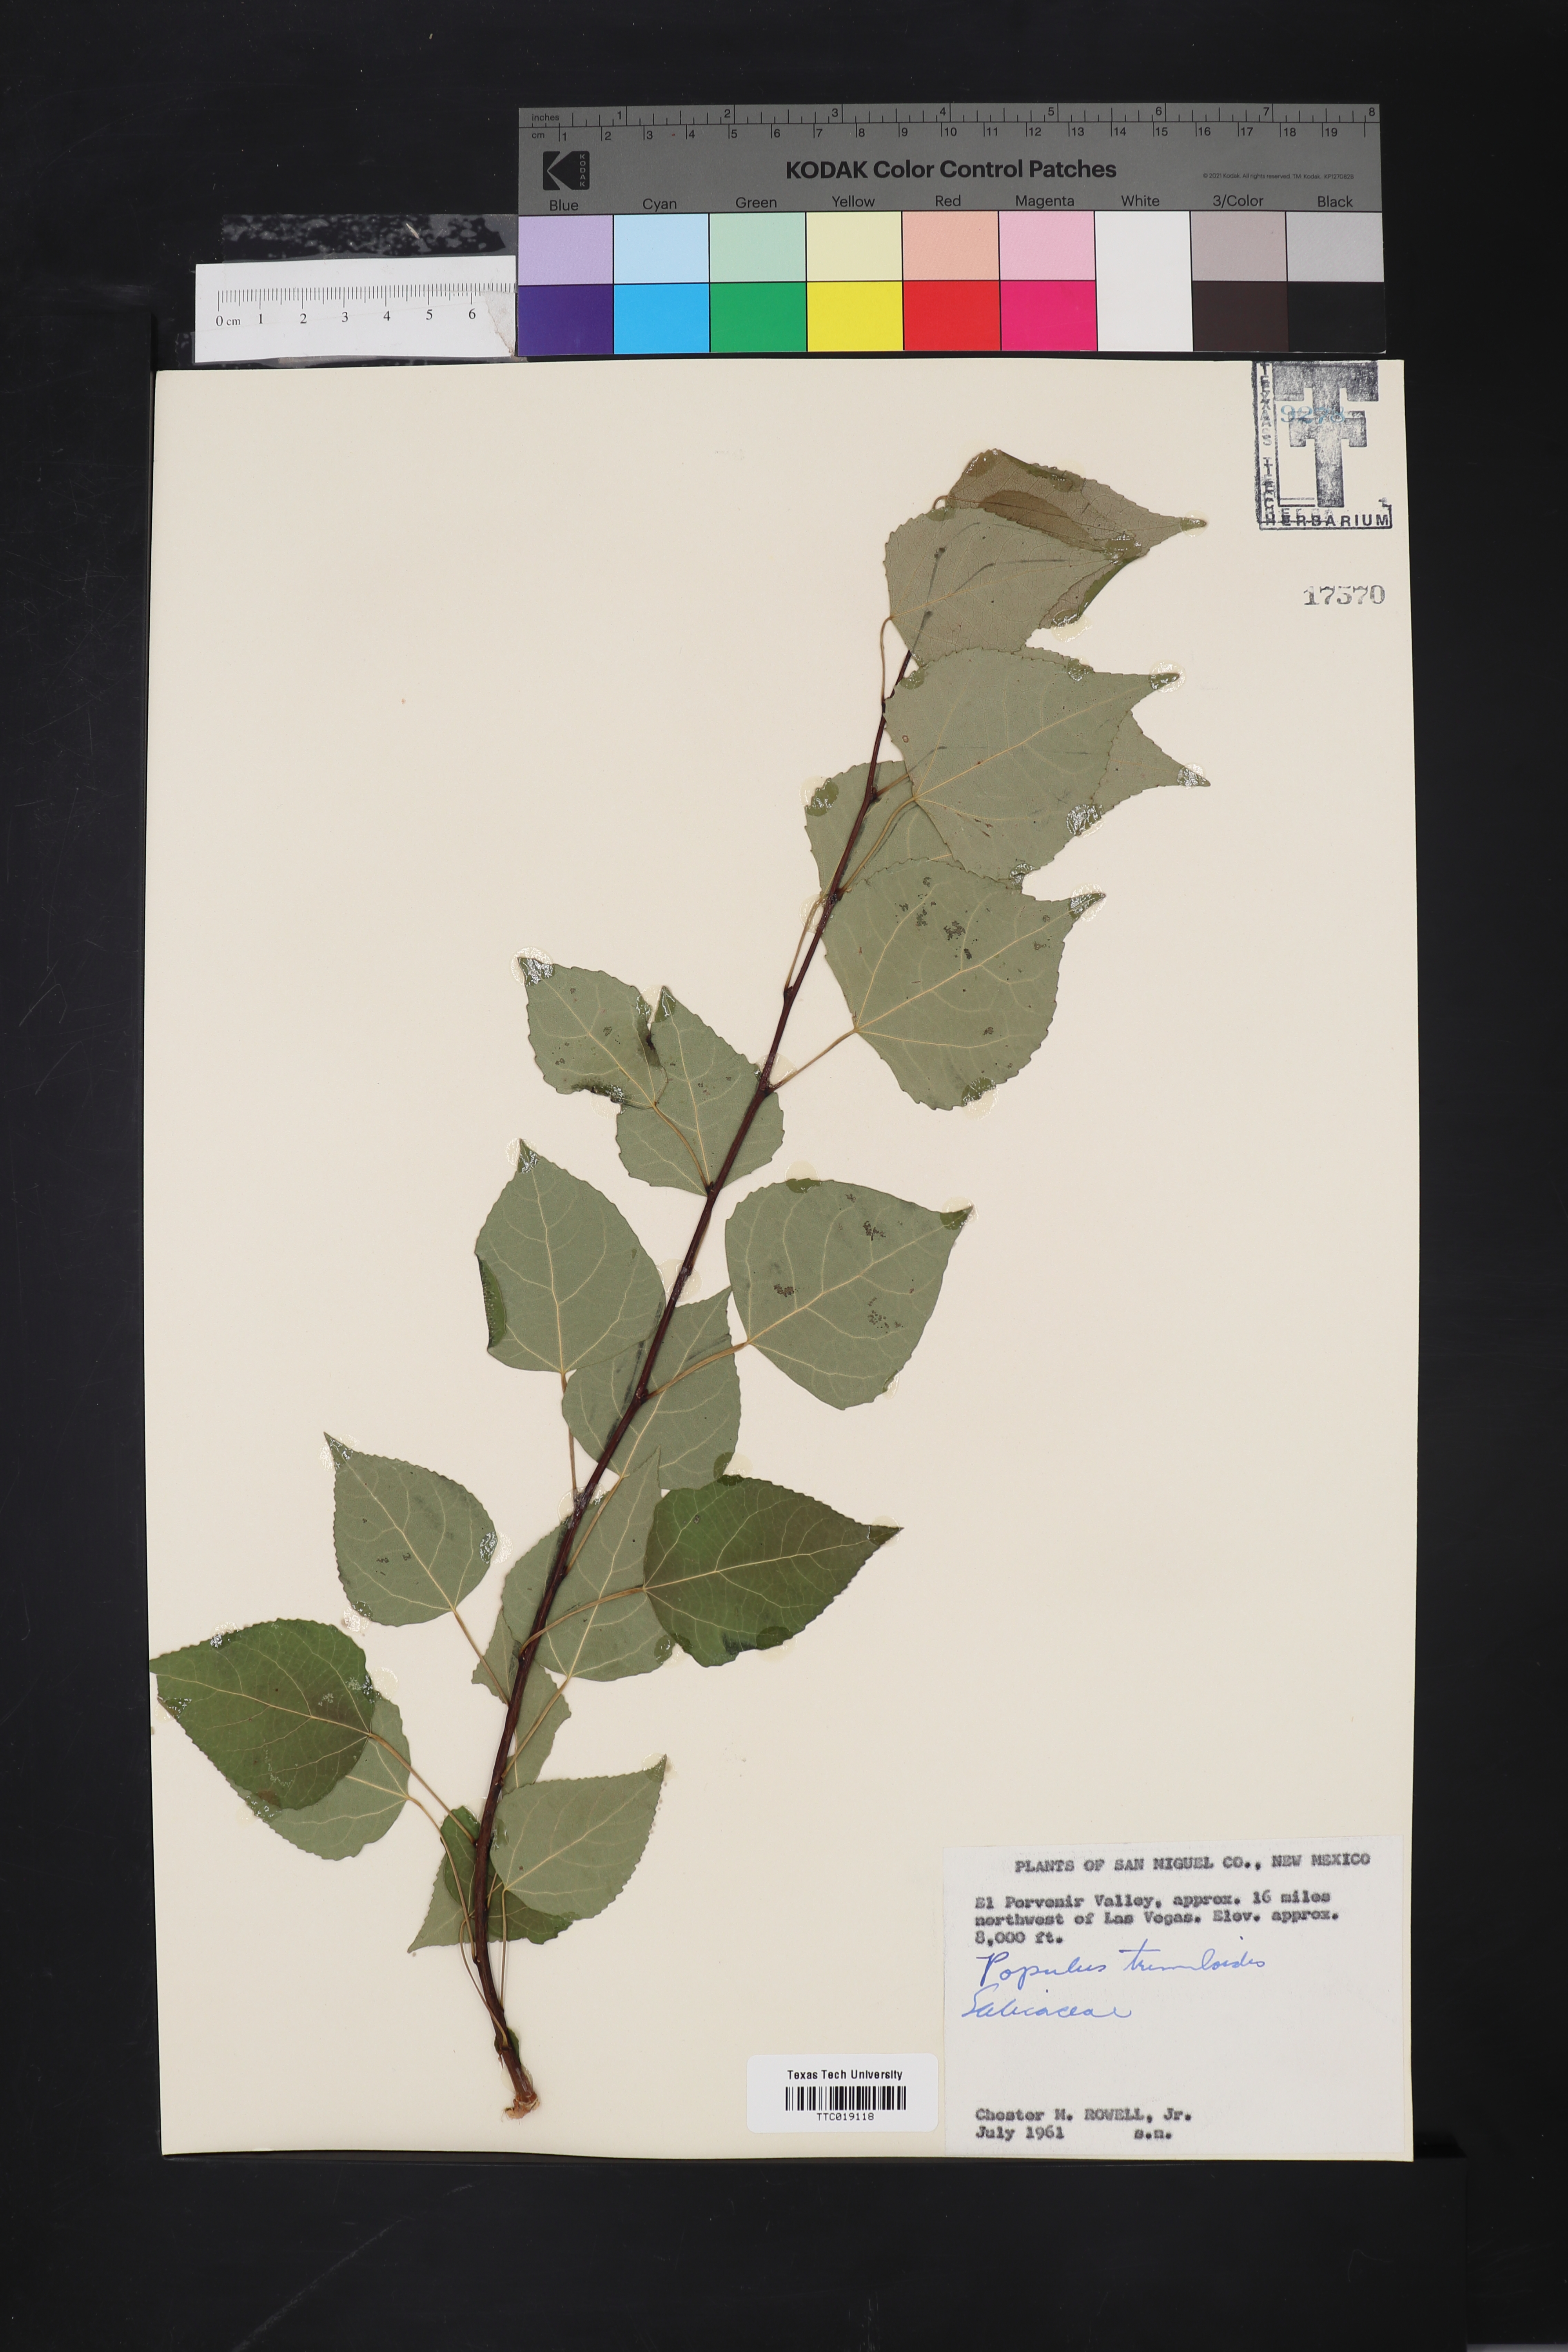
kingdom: Plantae
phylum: Tracheophyta
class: Magnoliopsida
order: Malpighiales
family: Salicaceae
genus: Populus
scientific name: Populus tremuloides
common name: Quaking aspen
